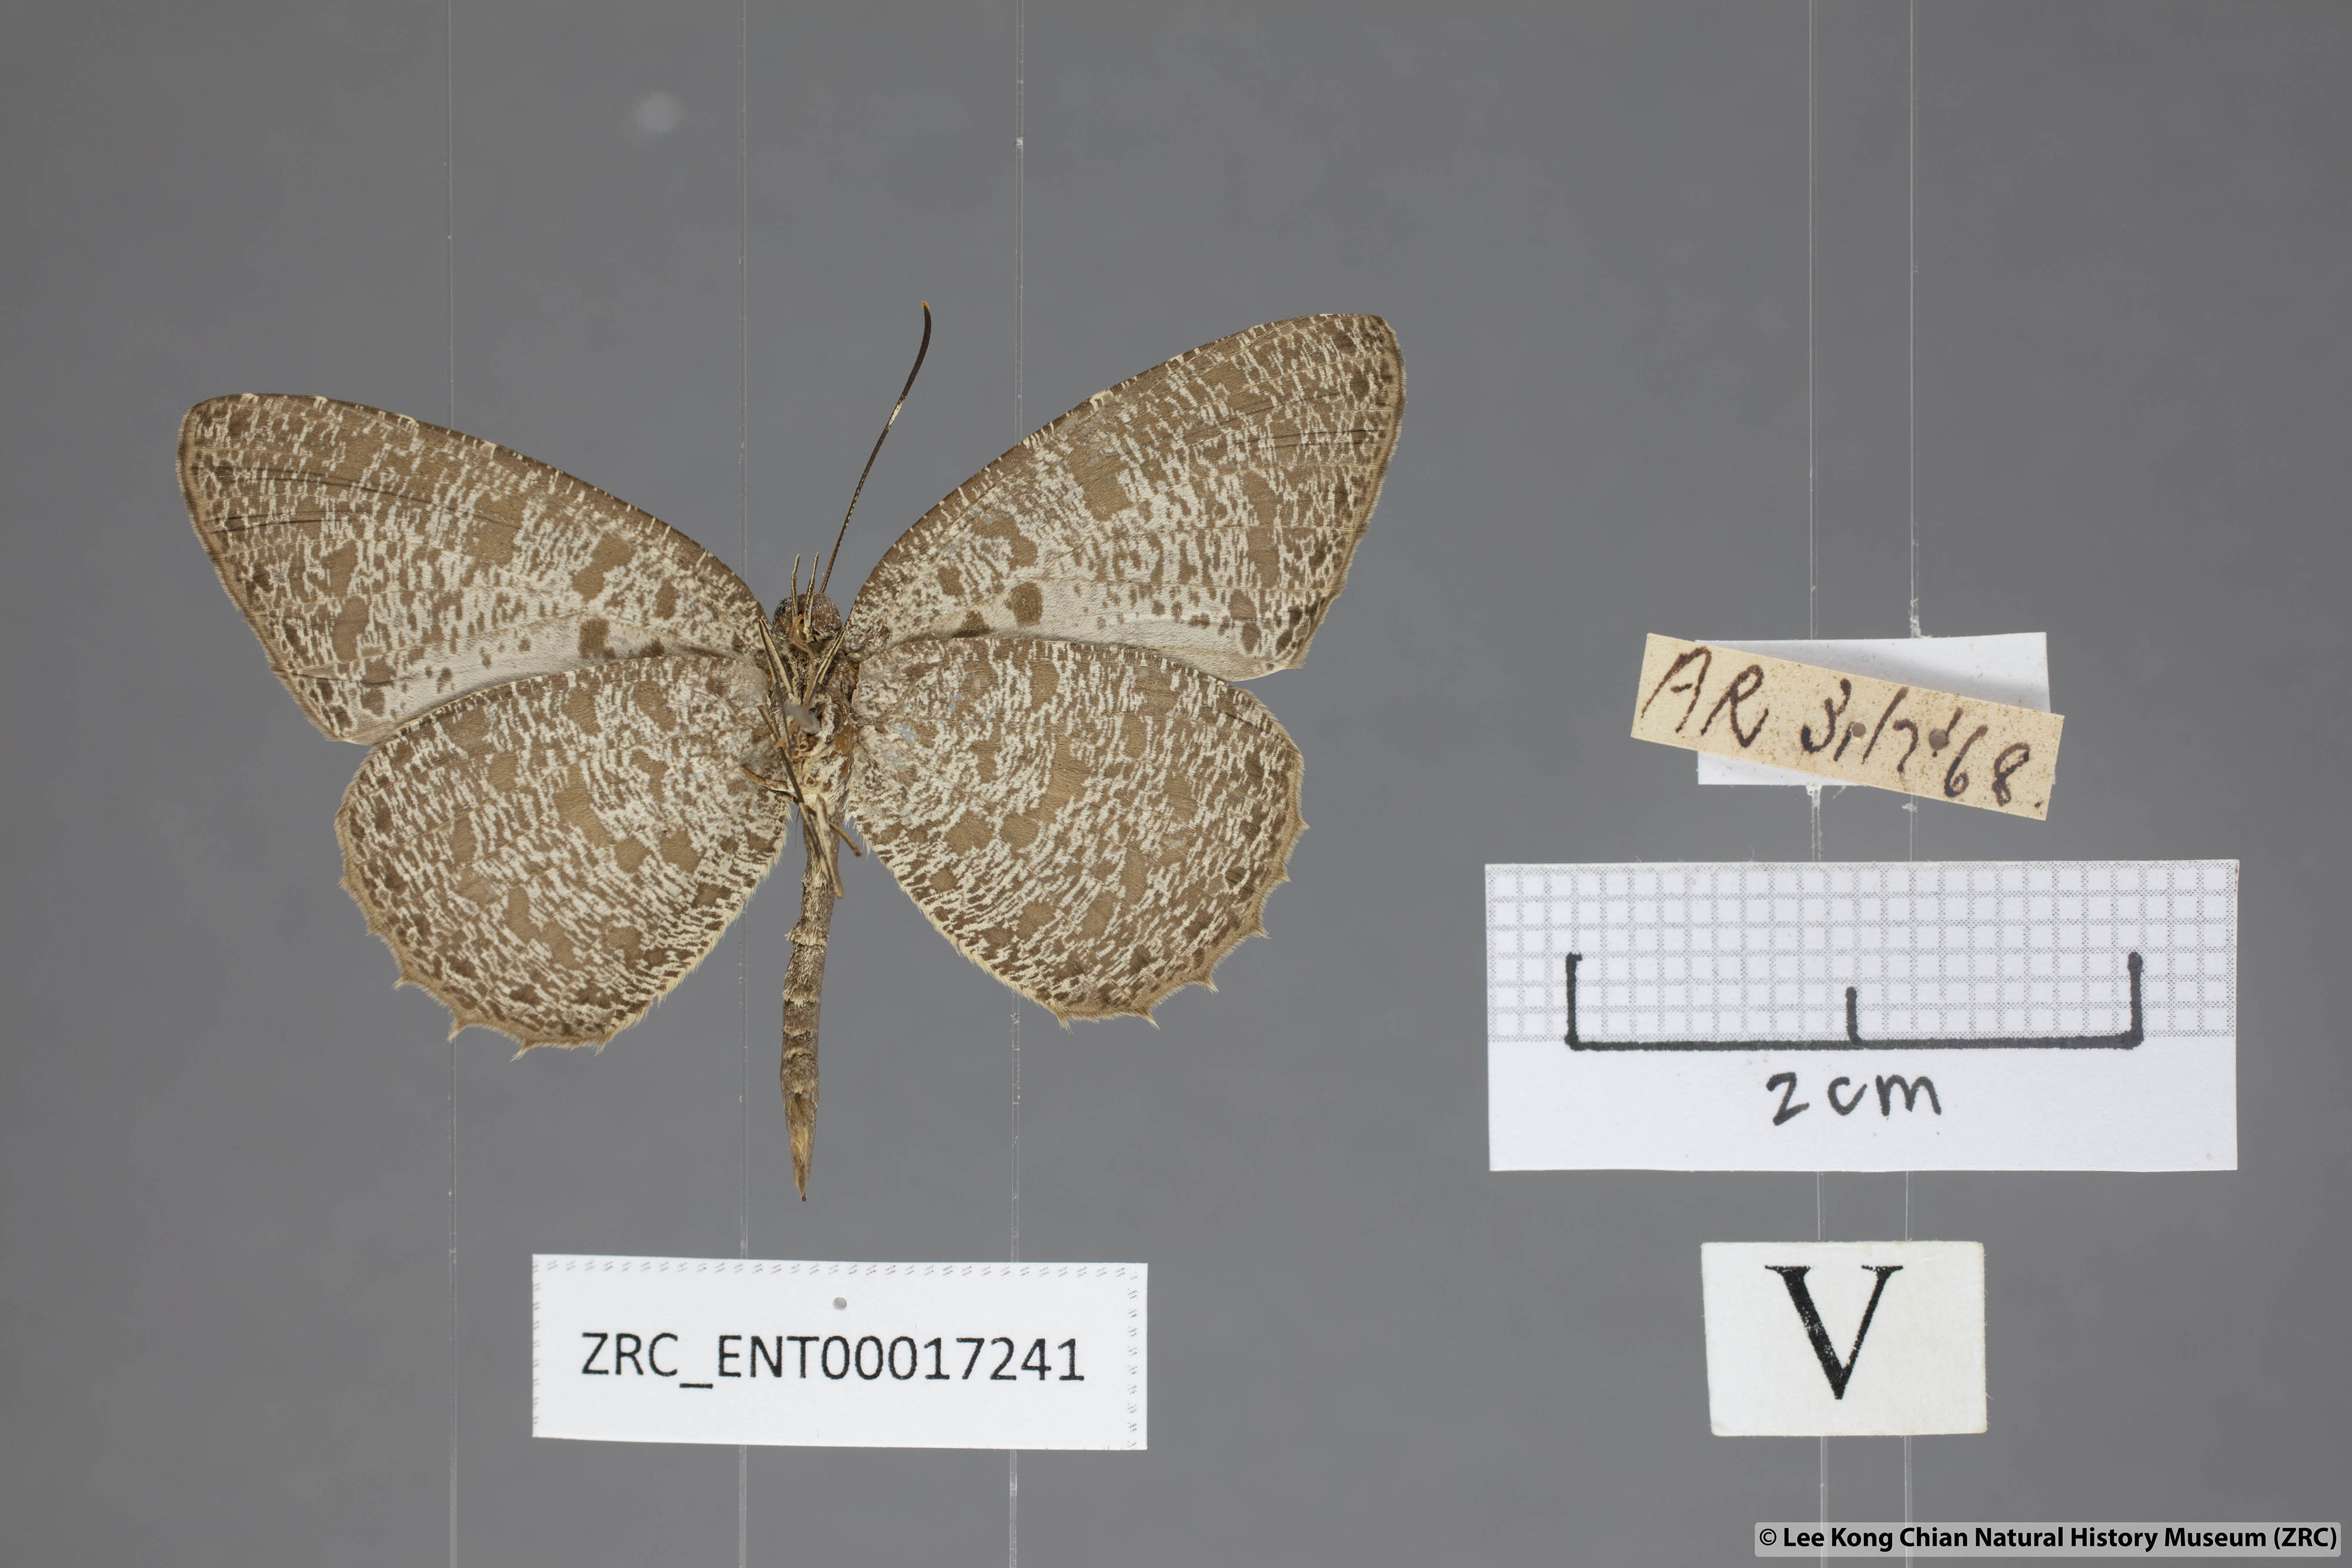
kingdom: Animalia
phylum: Arthropoda
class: Insecta
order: Lepidoptera
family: Lycaenidae
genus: Allotinus
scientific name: Allotinus horsfieldi
